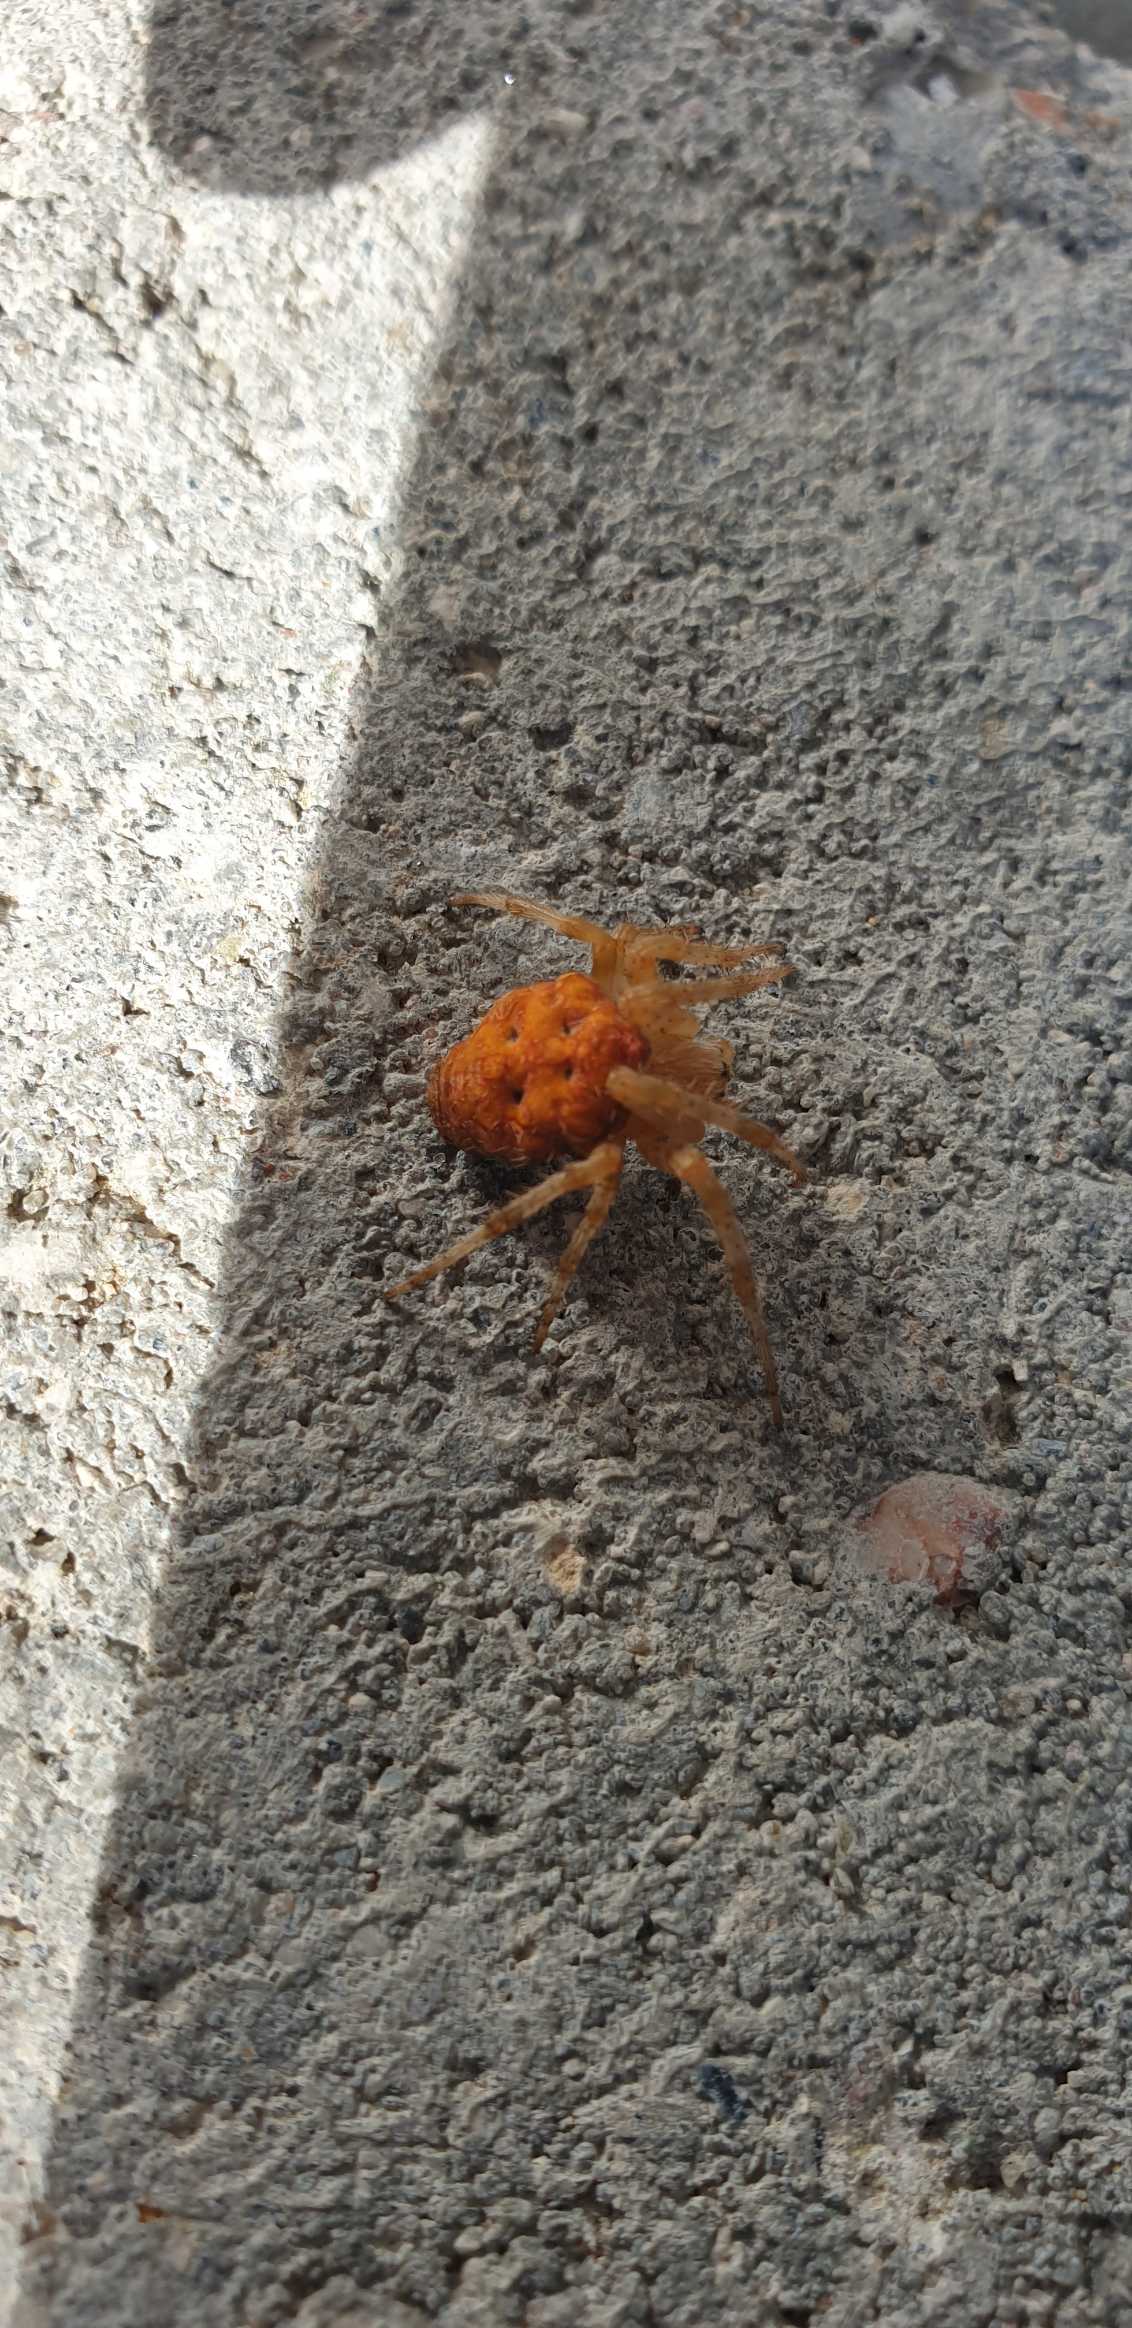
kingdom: Animalia
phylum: Arthropoda
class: Arachnida
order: Araneae
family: Araneidae
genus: Araneus
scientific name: Araneus diadematus
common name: Korsedderkop
